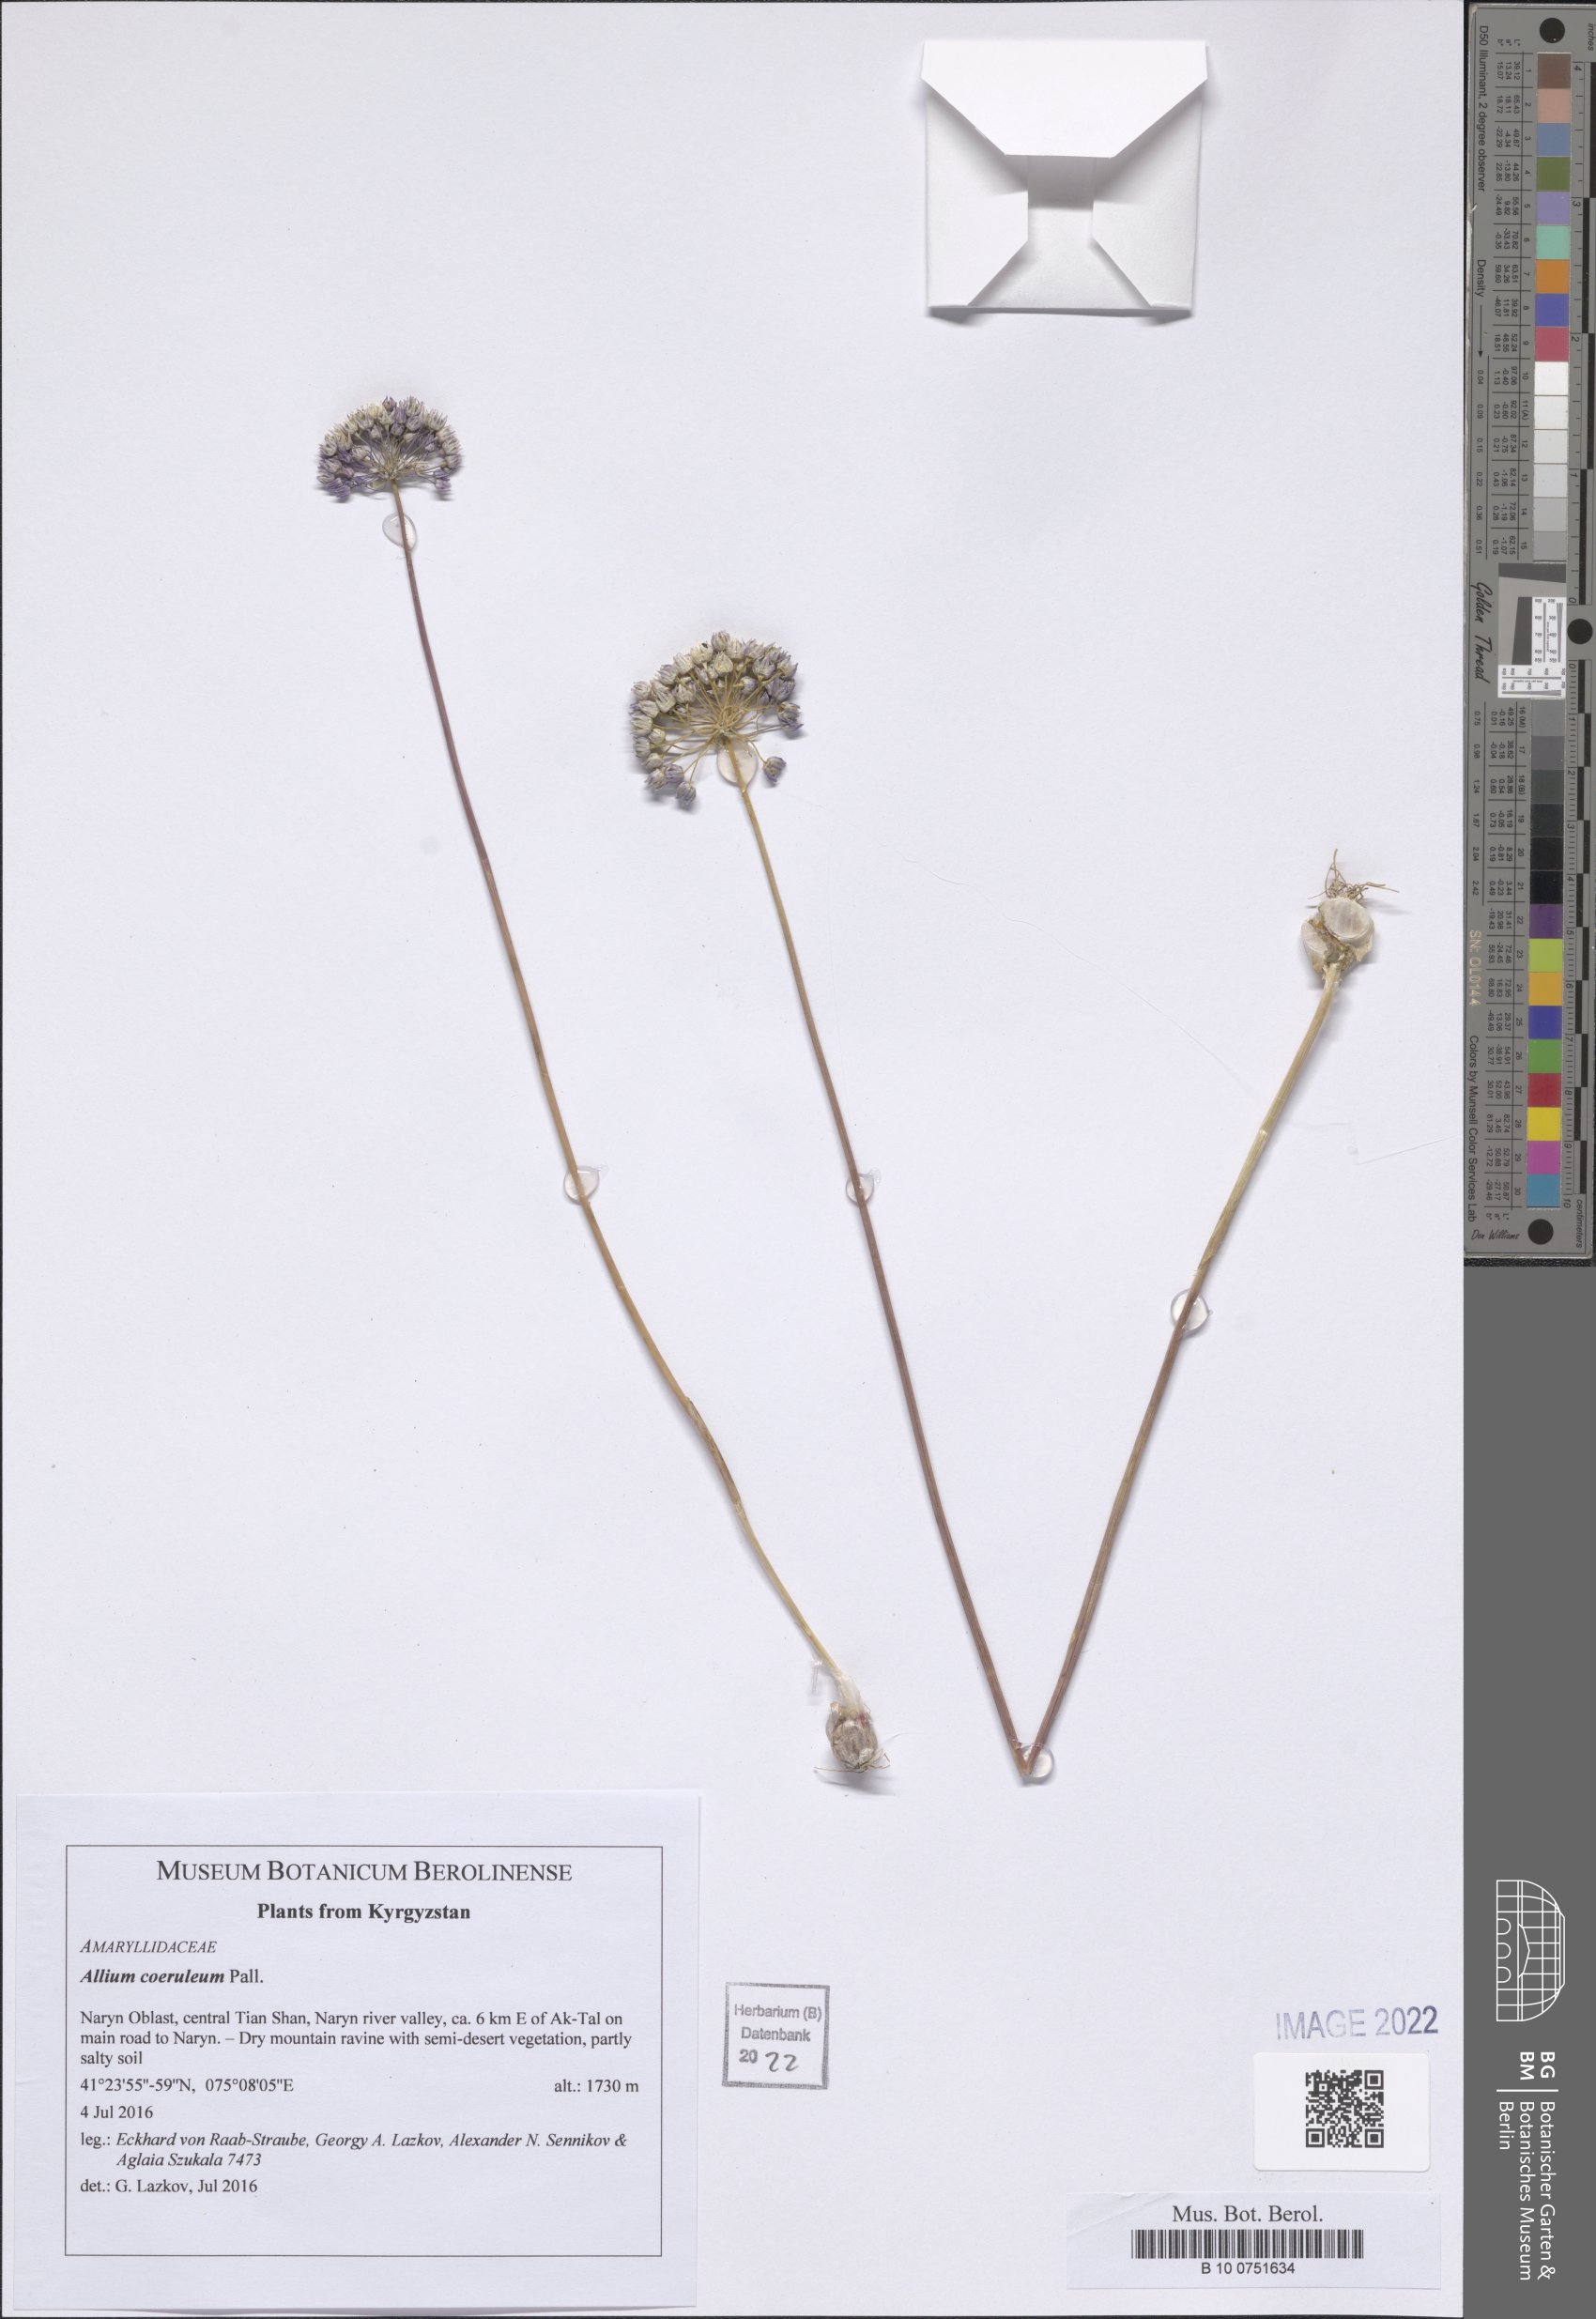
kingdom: Plantae
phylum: Tracheophyta
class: Liliopsida
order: Asparagales
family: Amaryllidaceae
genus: Allium
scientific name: Allium caeruleum
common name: Blue-of-the-heavens
